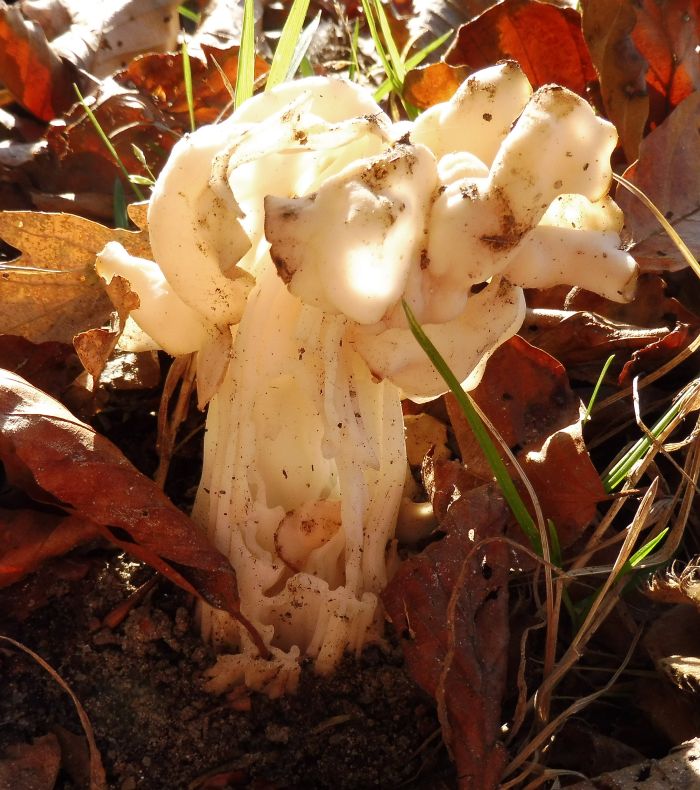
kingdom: Fungi
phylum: Ascomycota
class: Pezizomycetes
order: Pezizales
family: Helvellaceae
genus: Helvella
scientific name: Helvella crispa
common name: kruset foldhat
